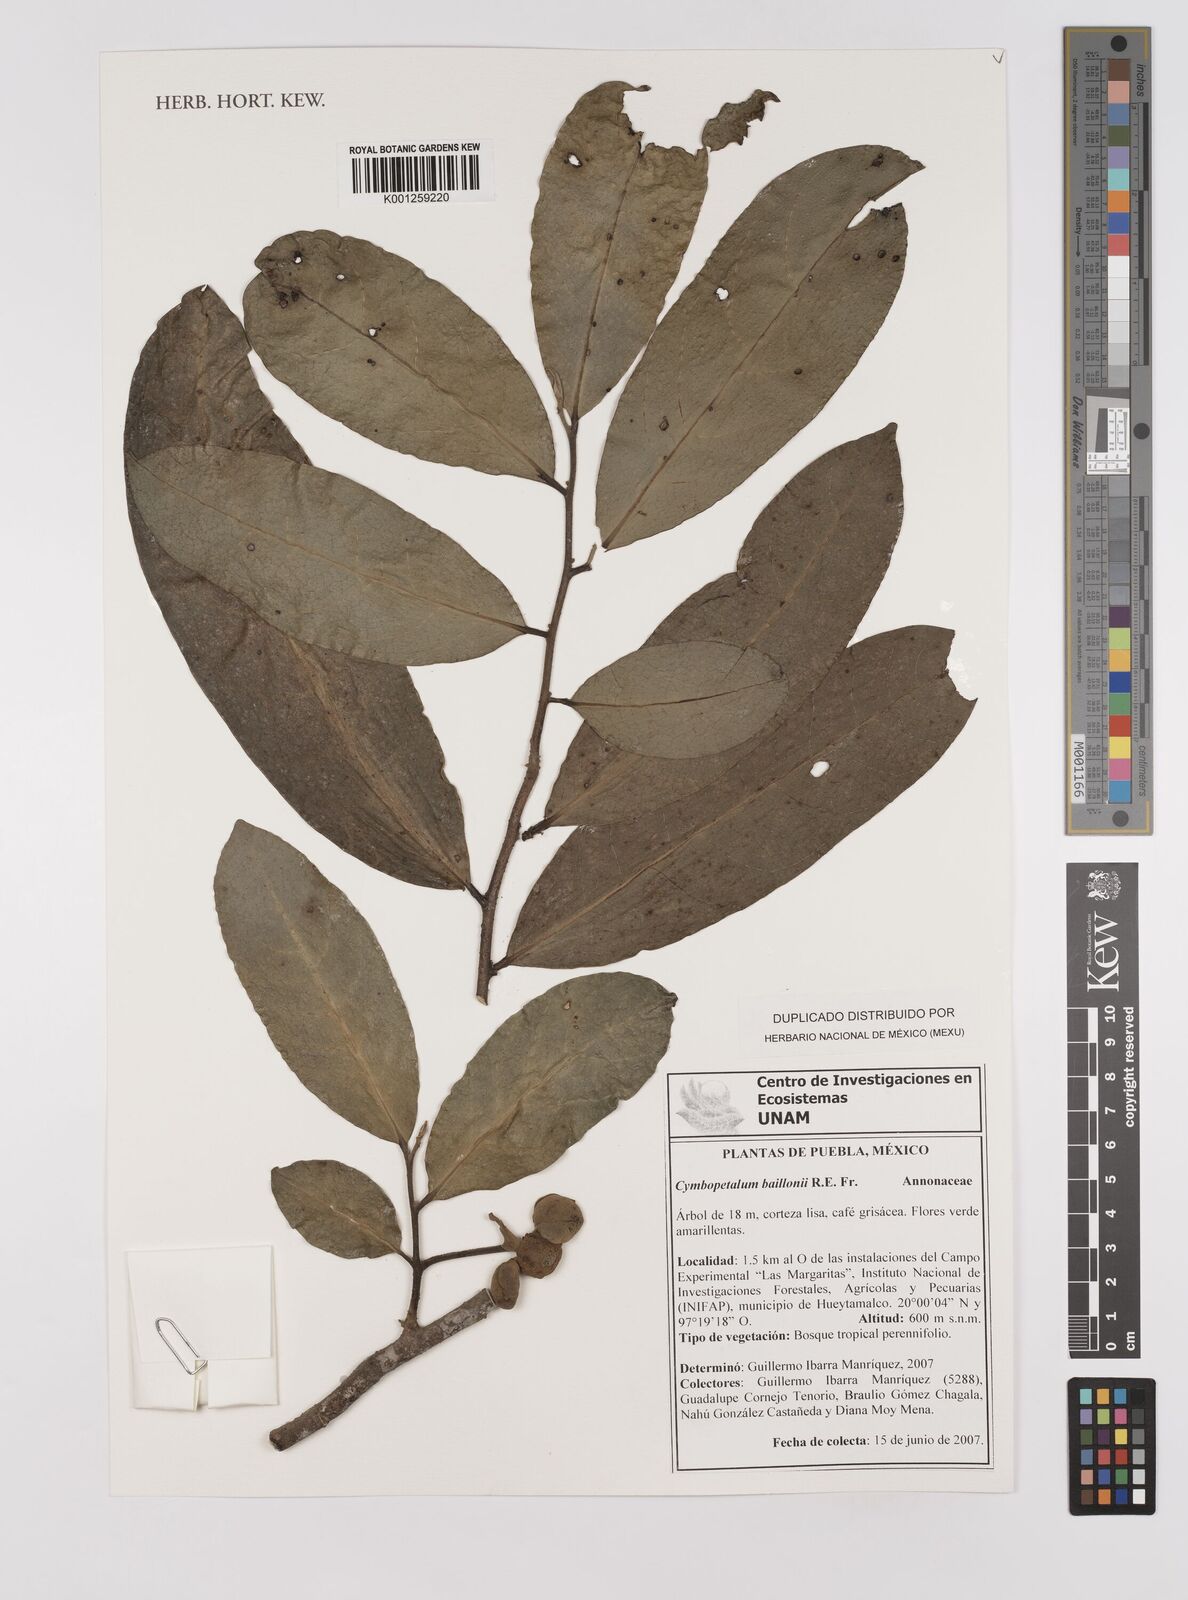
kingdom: Plantae
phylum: Tracheophyta
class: Magnoliopsida
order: Magnoliales
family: Annonaceae
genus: Cymbopetalum
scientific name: Cymbopetalum baillonii
